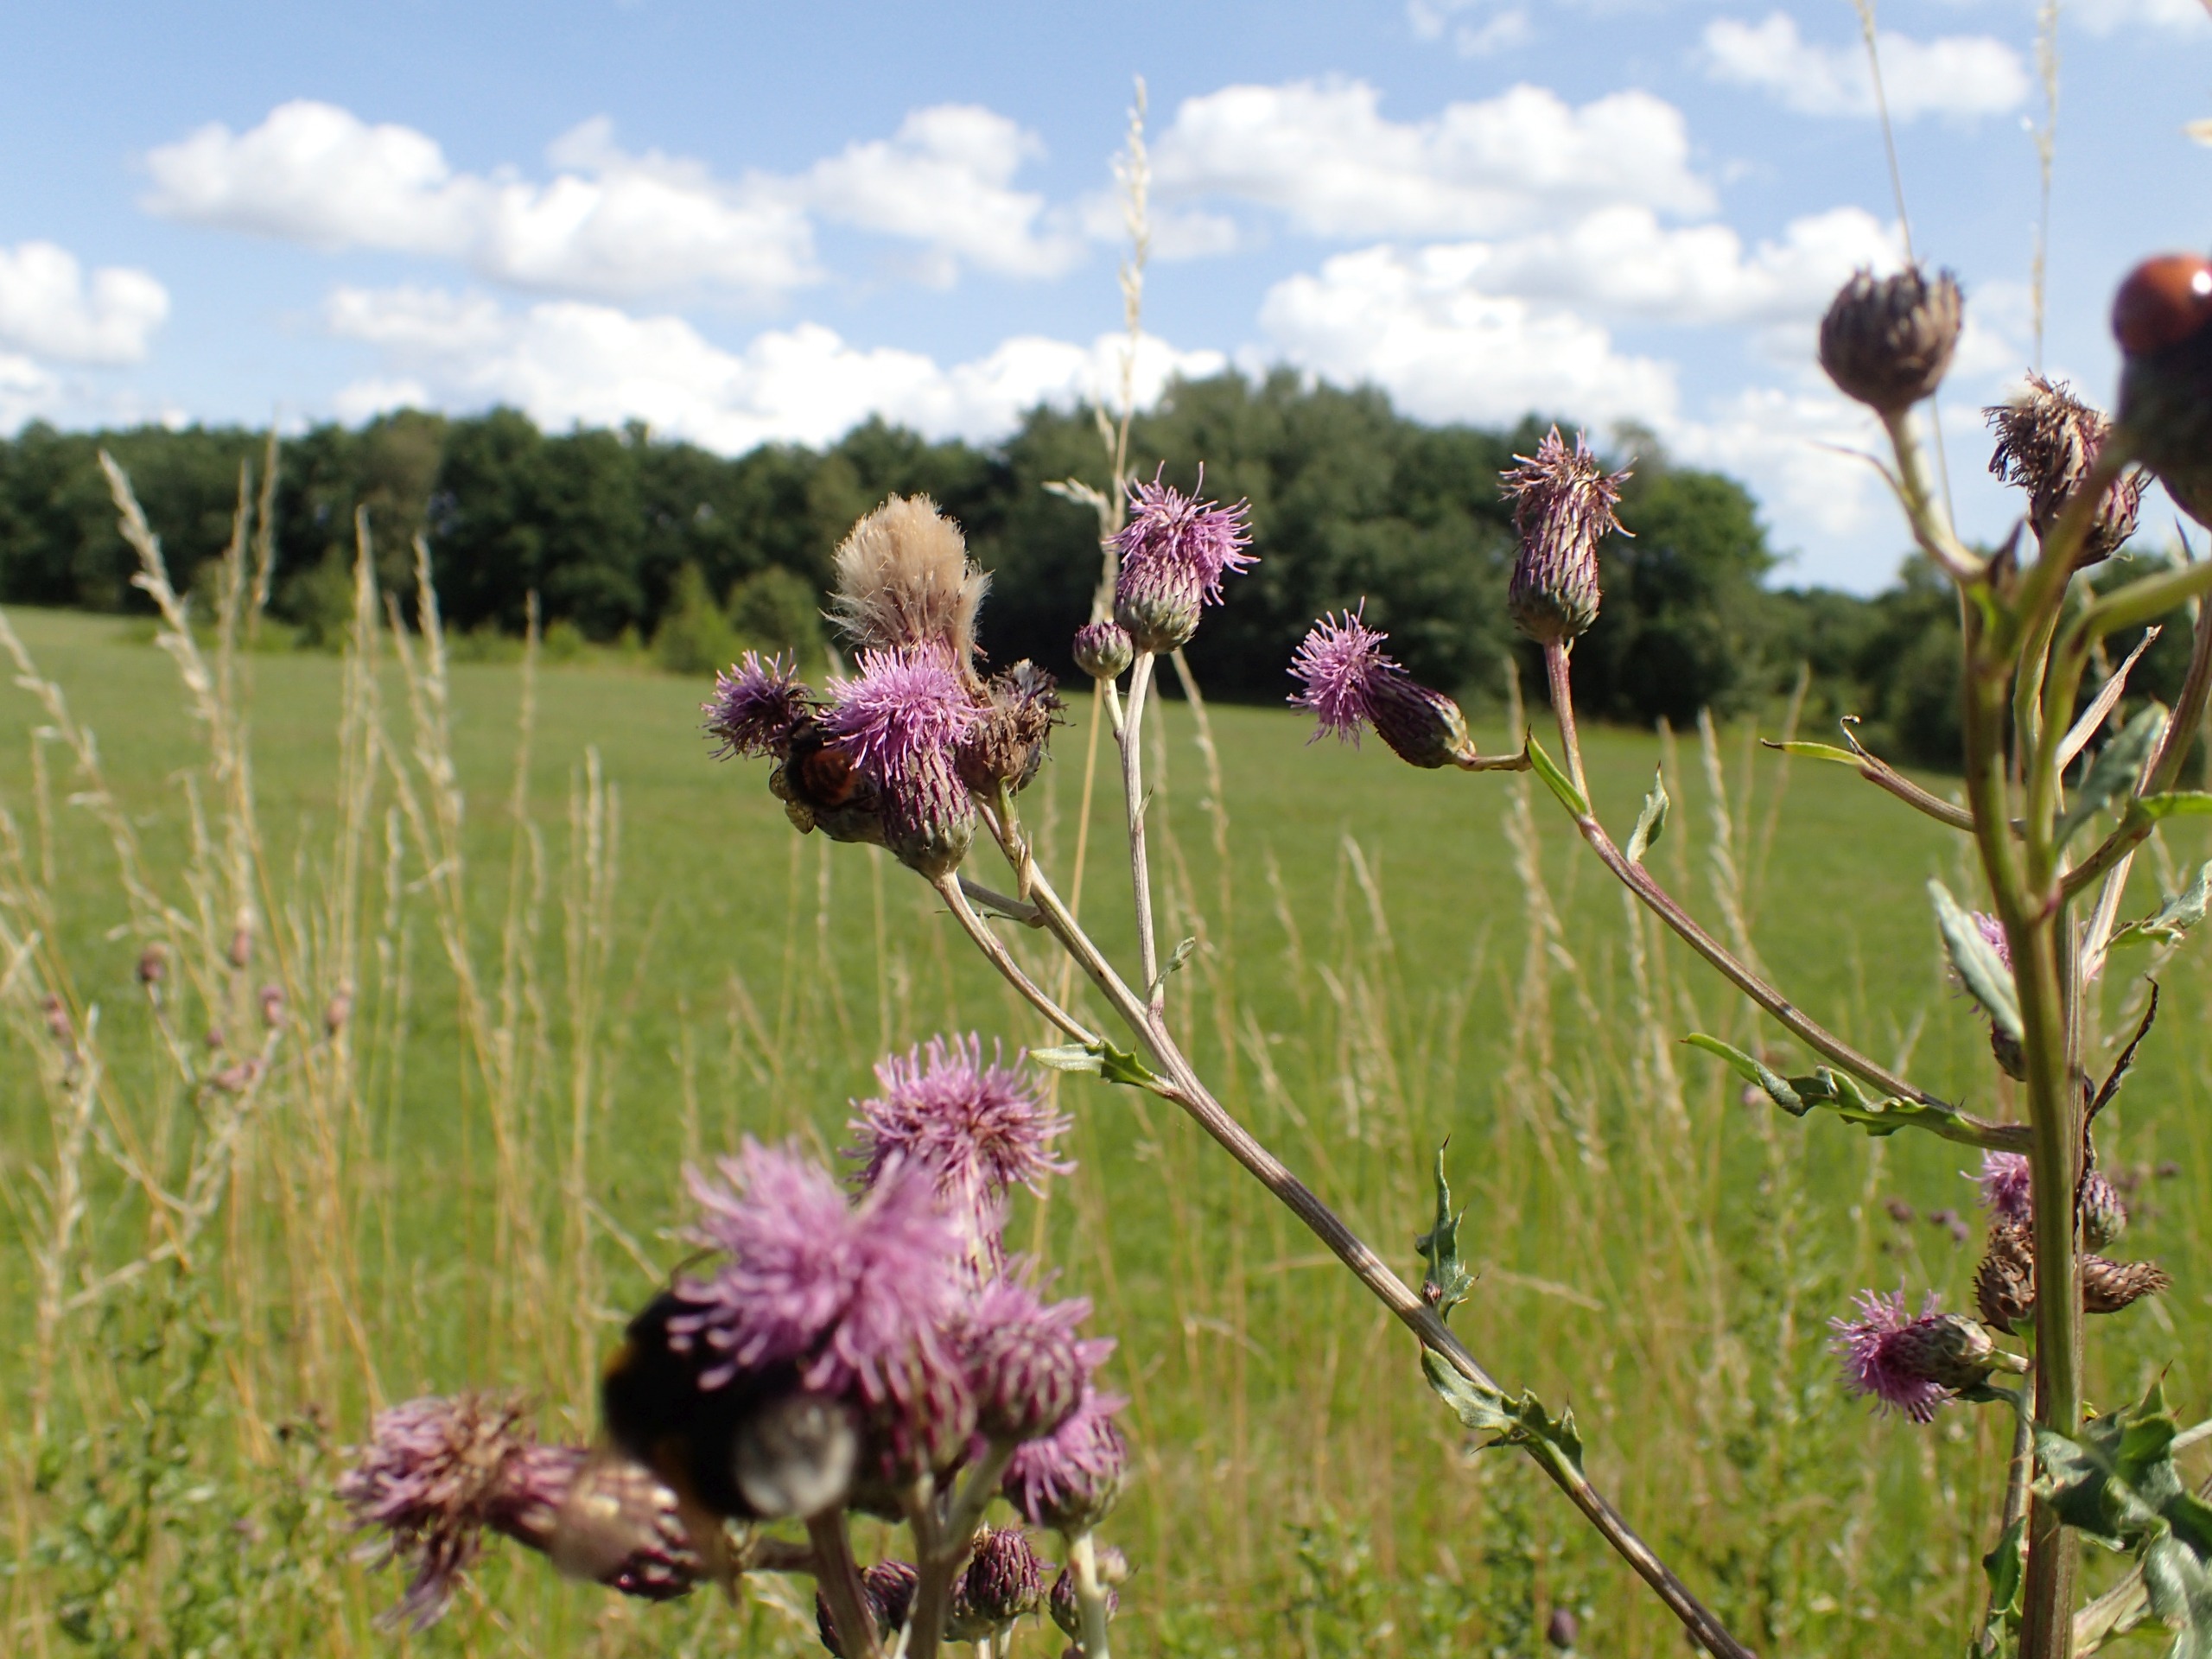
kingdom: Plantae
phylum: Tracheophyta
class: Magnoliopsida
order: Asterales
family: Asteraceae
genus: Cirsium
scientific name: Cirsium arvense
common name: Ager-tidsel
